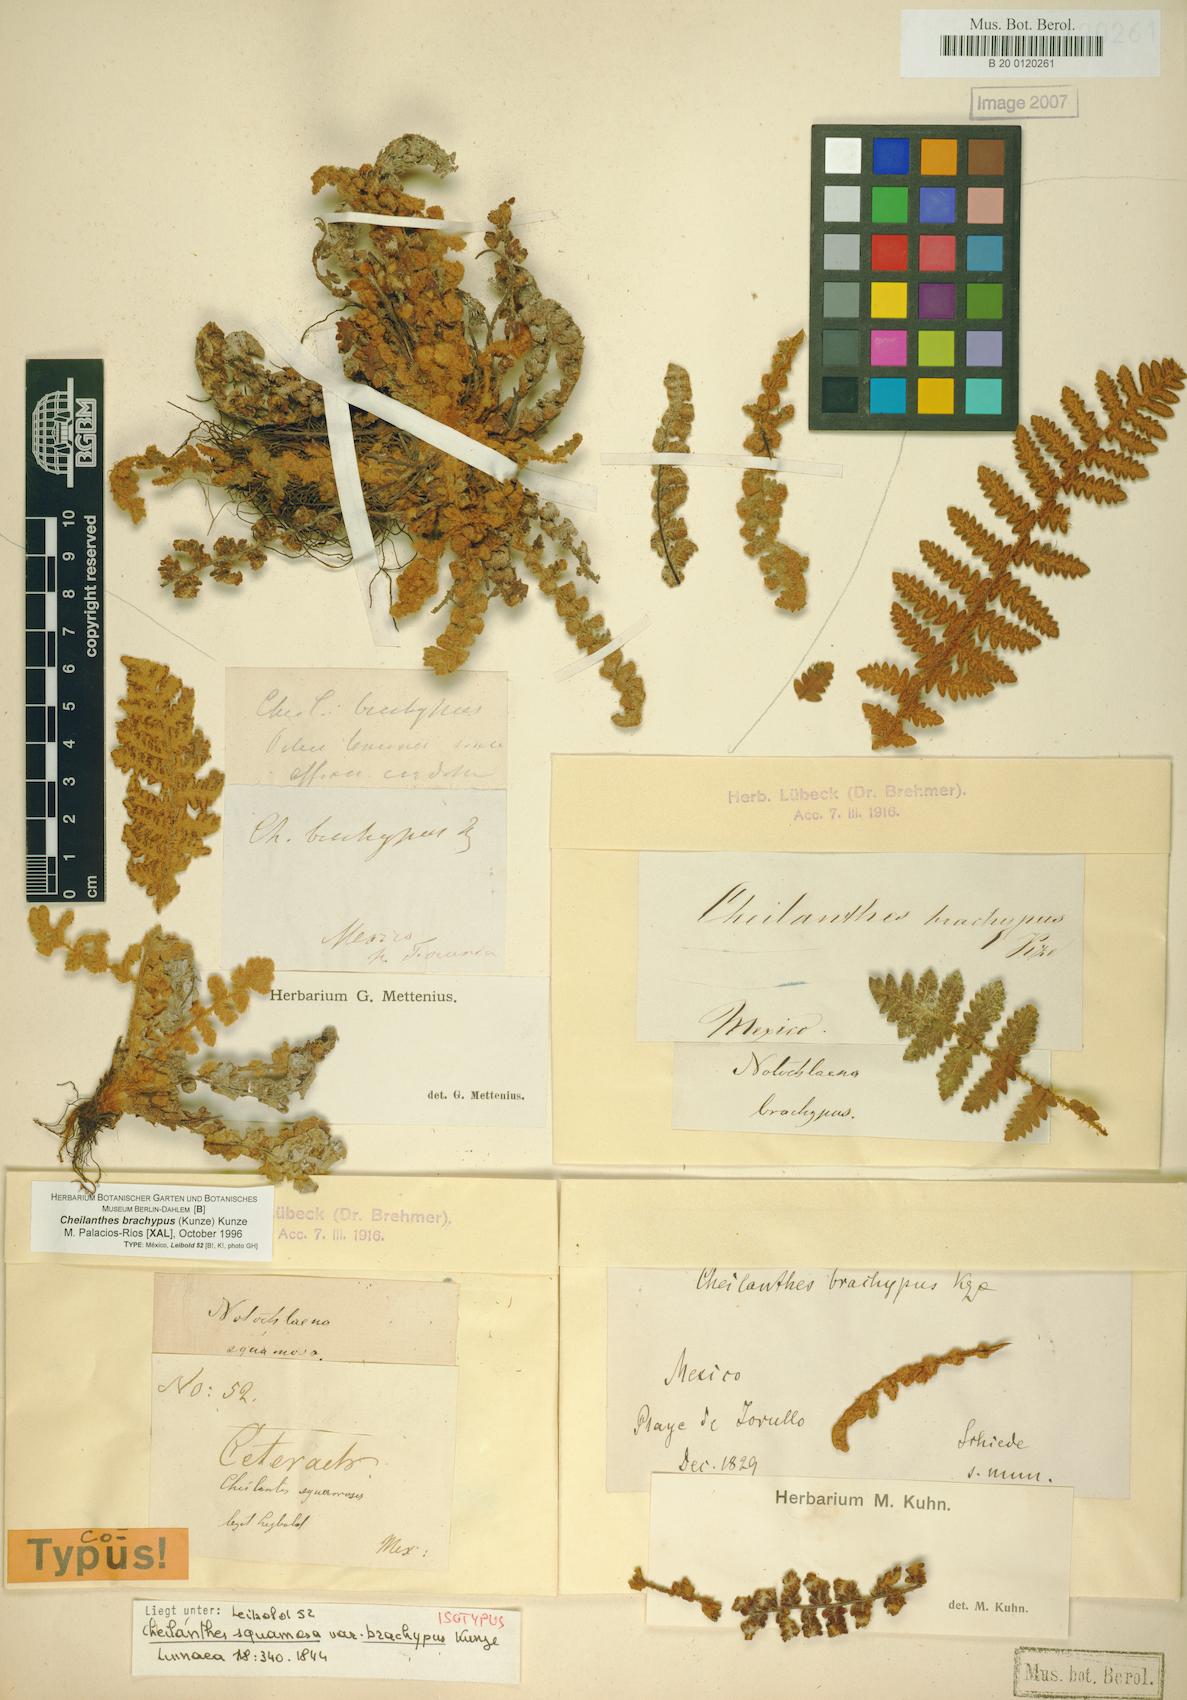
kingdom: Plantae
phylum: Tracheophyta
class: Polypodiopsida
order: Polypodiales
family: Pteridaceae
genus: Notholaena
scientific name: Notholaena brachypus
